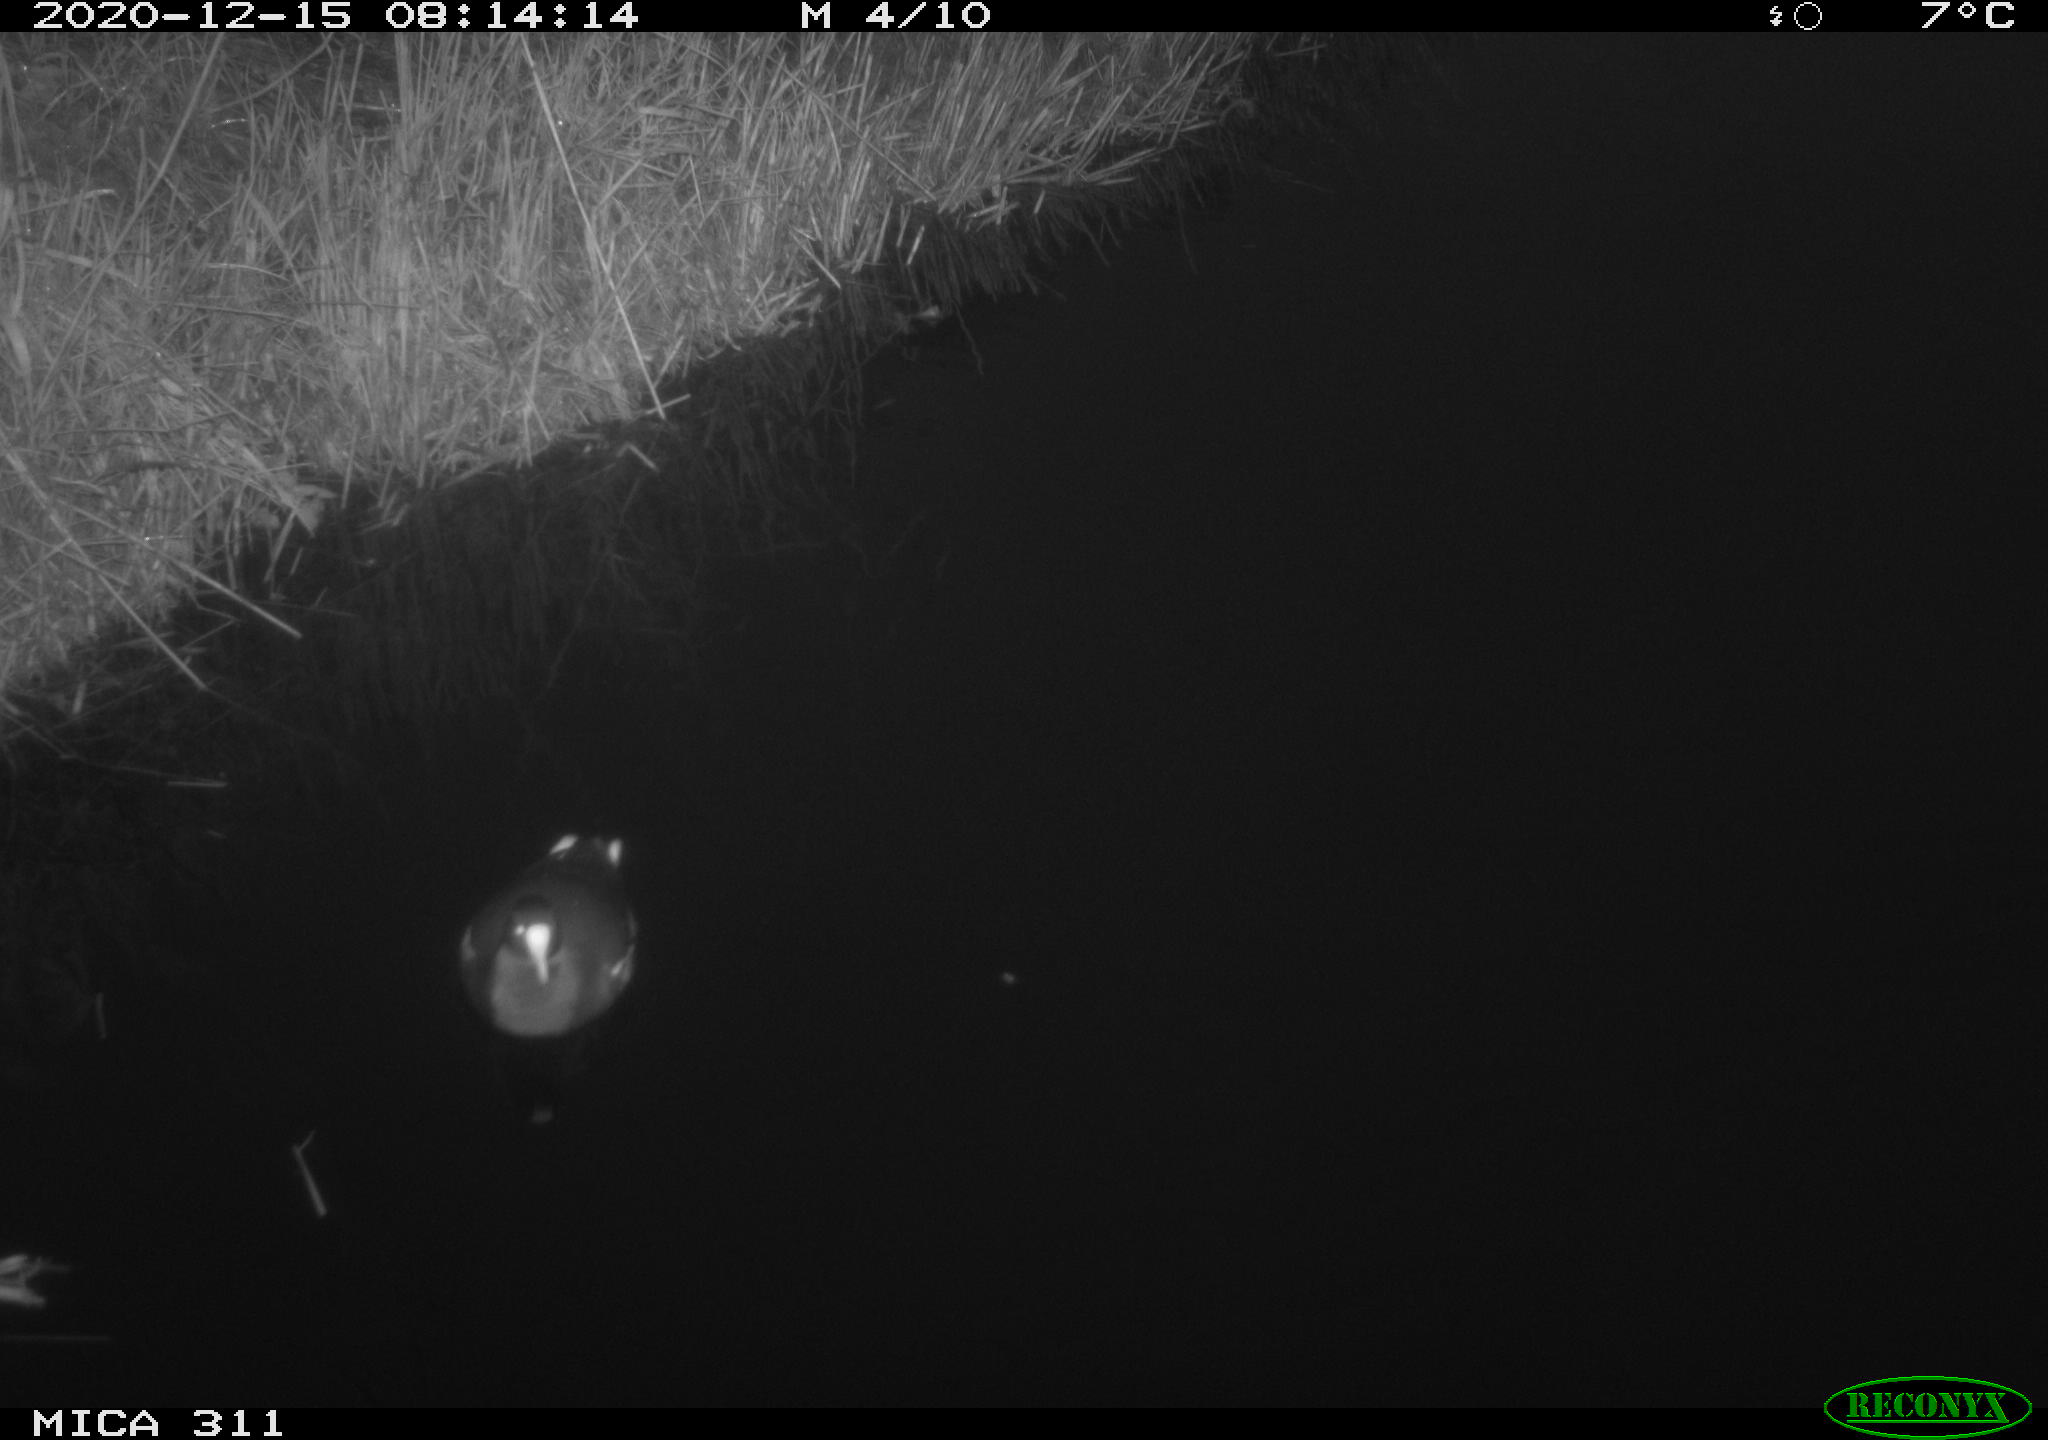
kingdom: Animalia
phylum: Chordata
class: Aves
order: Gruiformes
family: Rallidae
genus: Gallinula
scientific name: Gallinula chloropus
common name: Common moorhen
